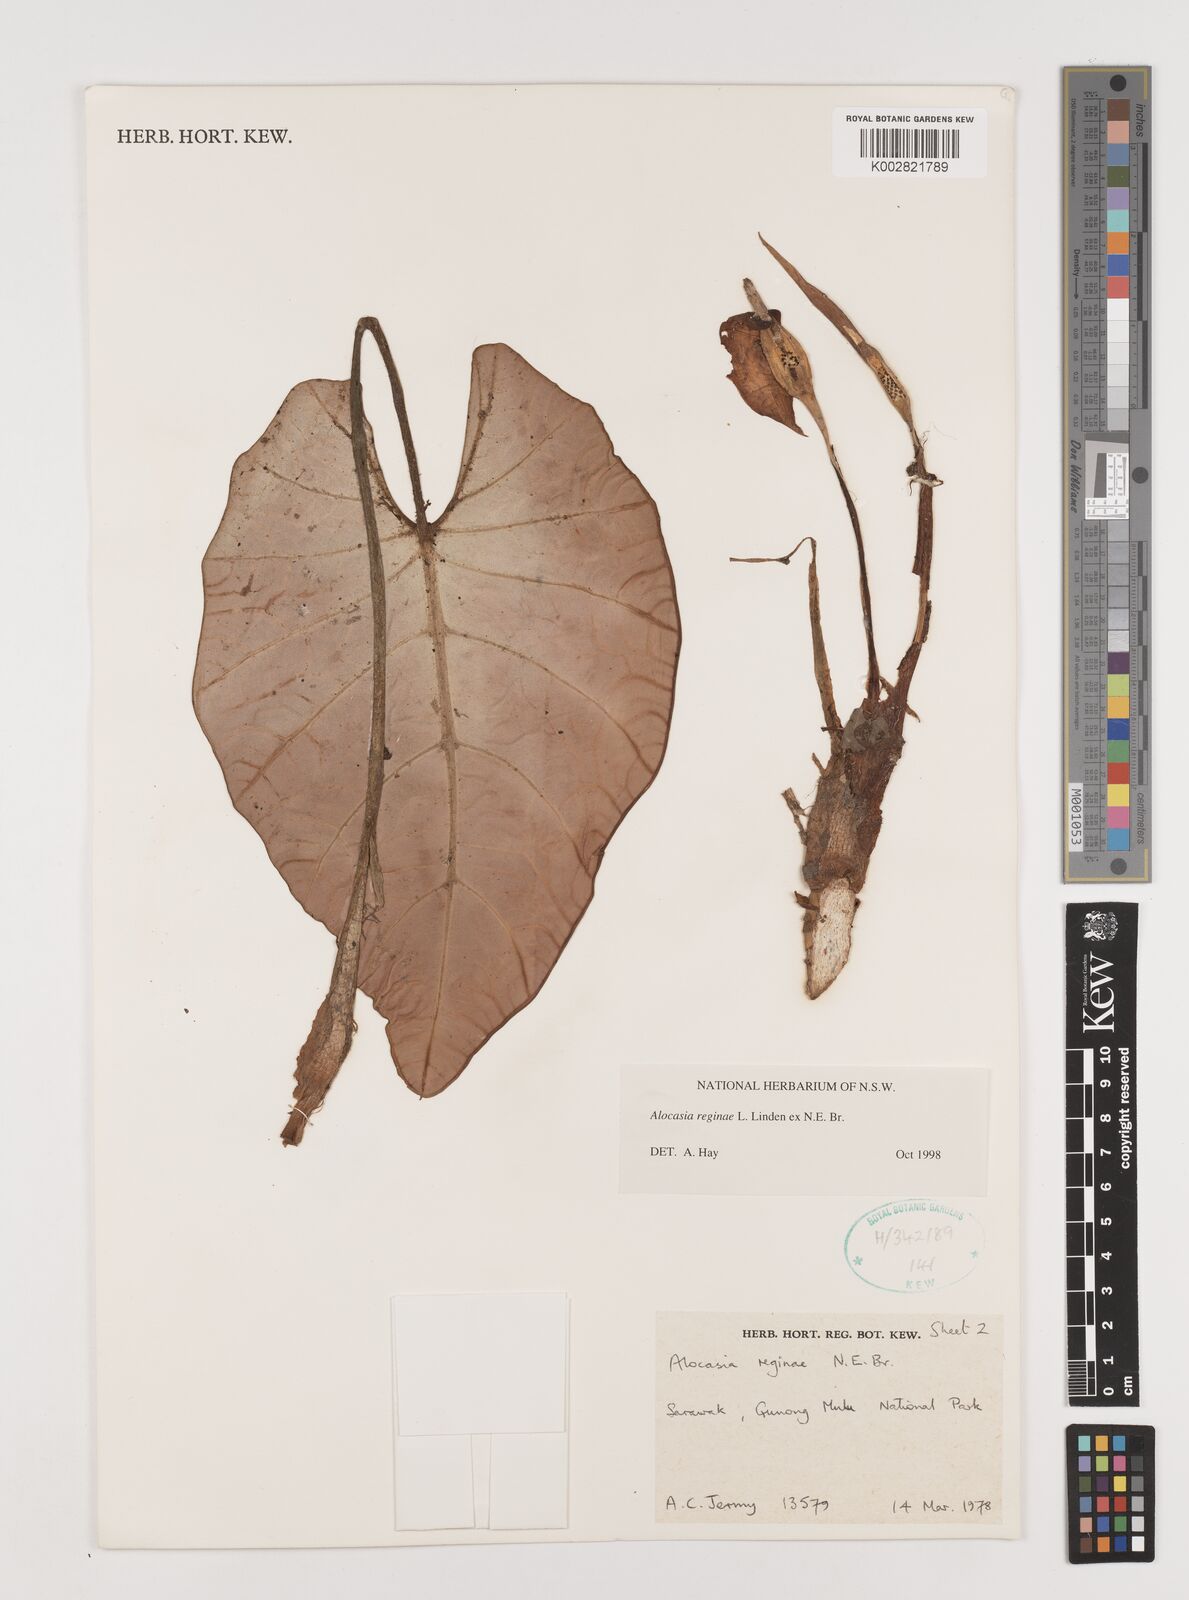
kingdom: Plantae
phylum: Tracheophyta
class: Liliopsida
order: Alismatales
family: Araceae
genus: Alocasia
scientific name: Alocasia reginae
